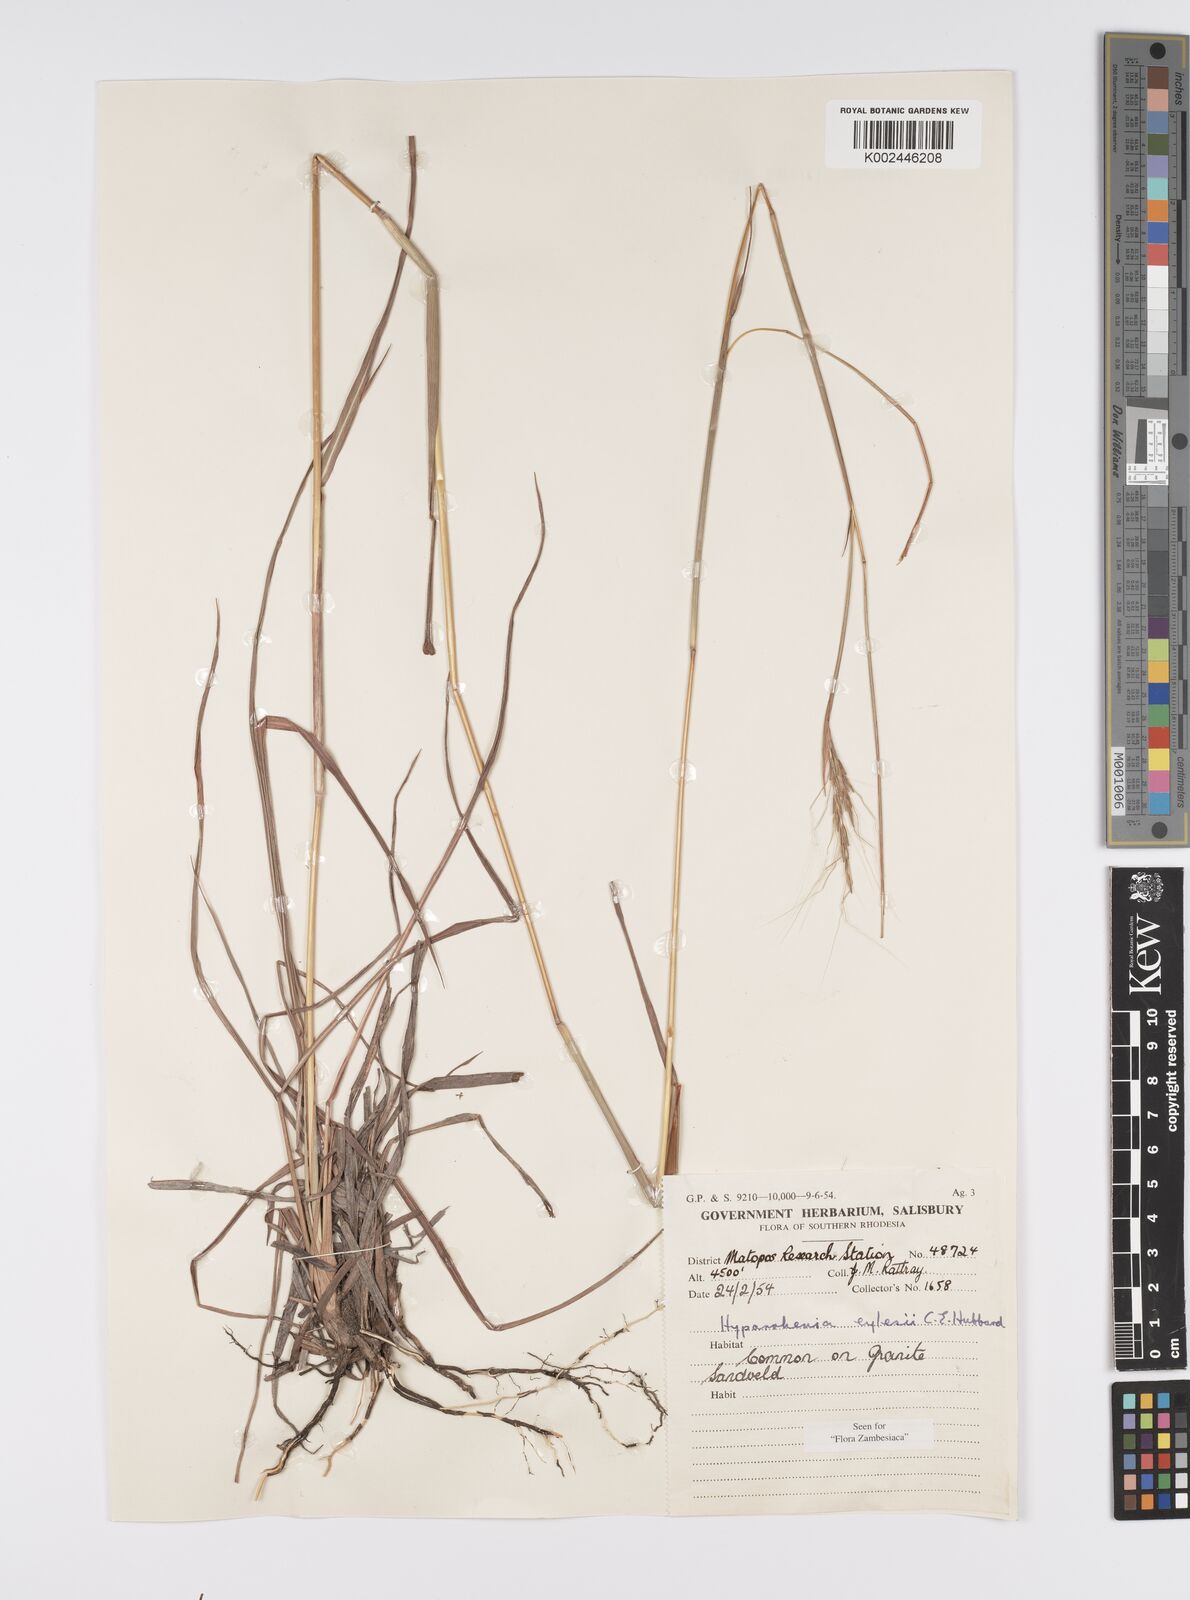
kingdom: Plantae
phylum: Tracheophyta
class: Liliopsida
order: Poales
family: Poaceae
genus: Elymandra
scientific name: Elymandra grallata
